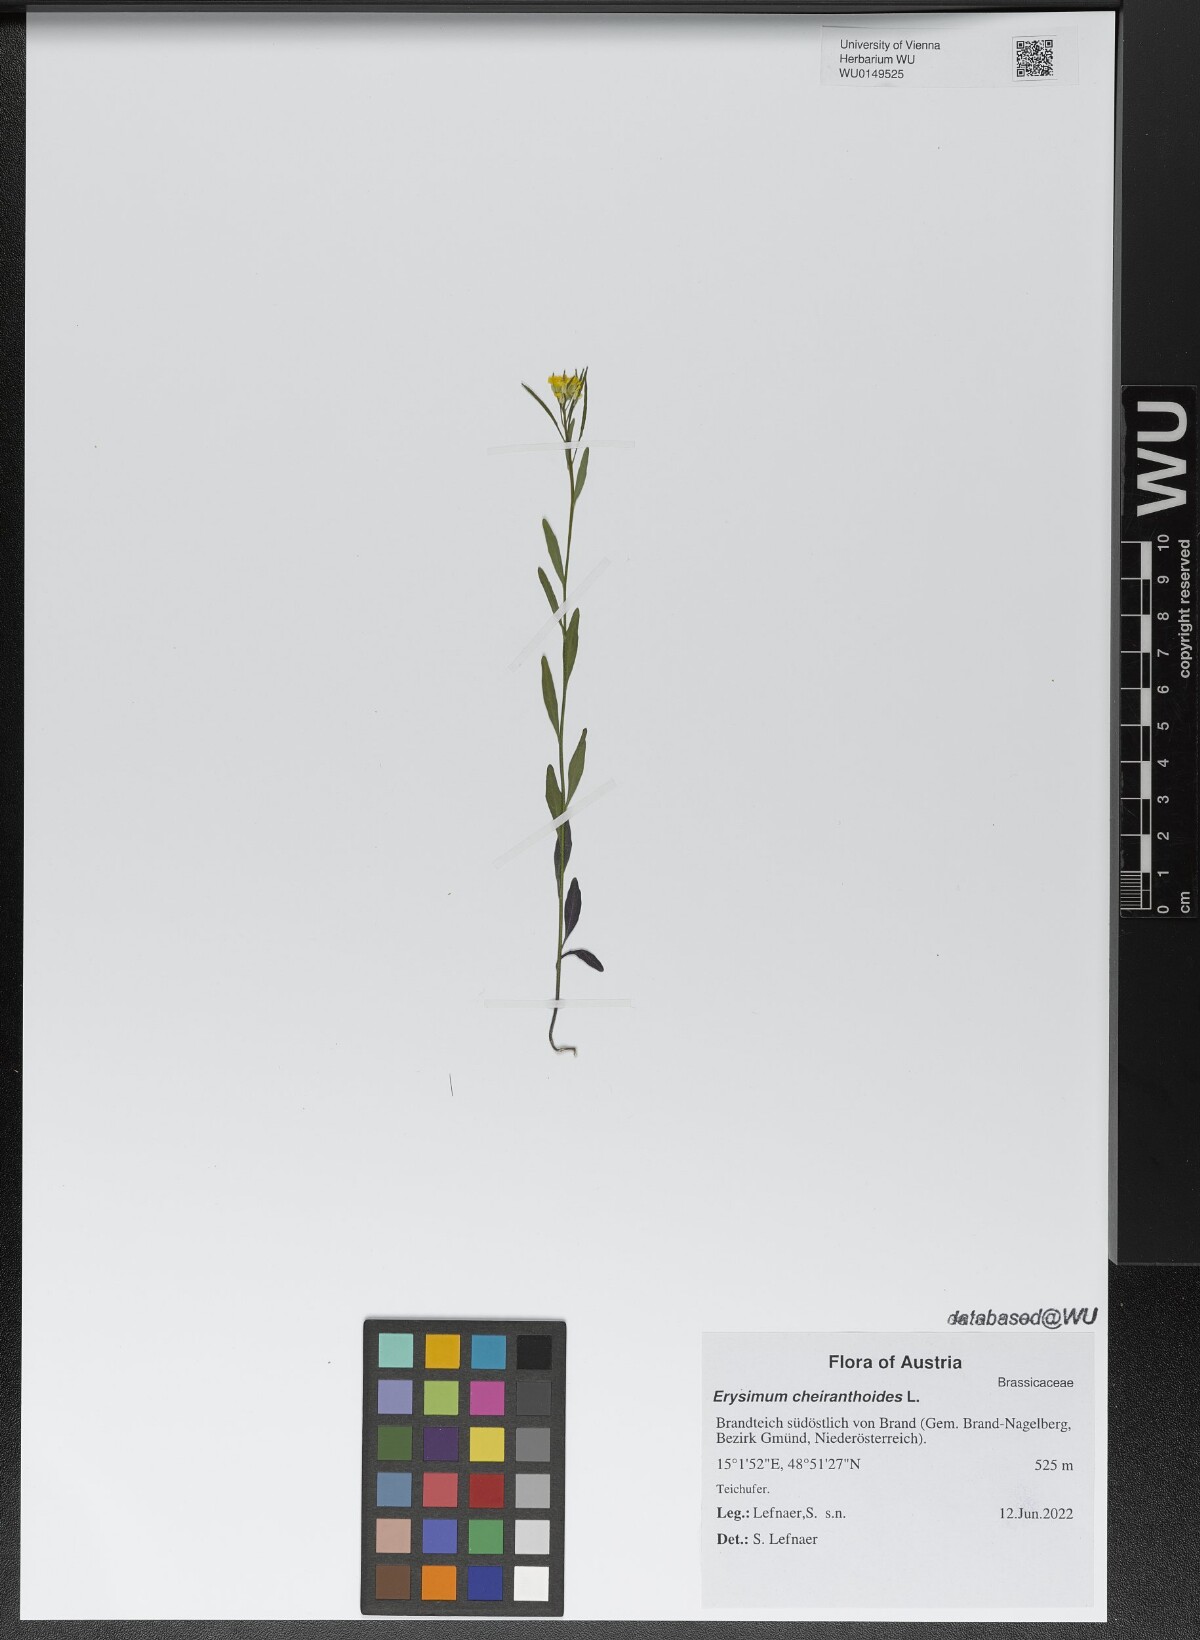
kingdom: Plantae
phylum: Tracheophyta
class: Magnoliopsida
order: Brassicales
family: Brassicaceae
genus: Erysimum
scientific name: Erysimum cheiranthoides
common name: Treacle mustard
